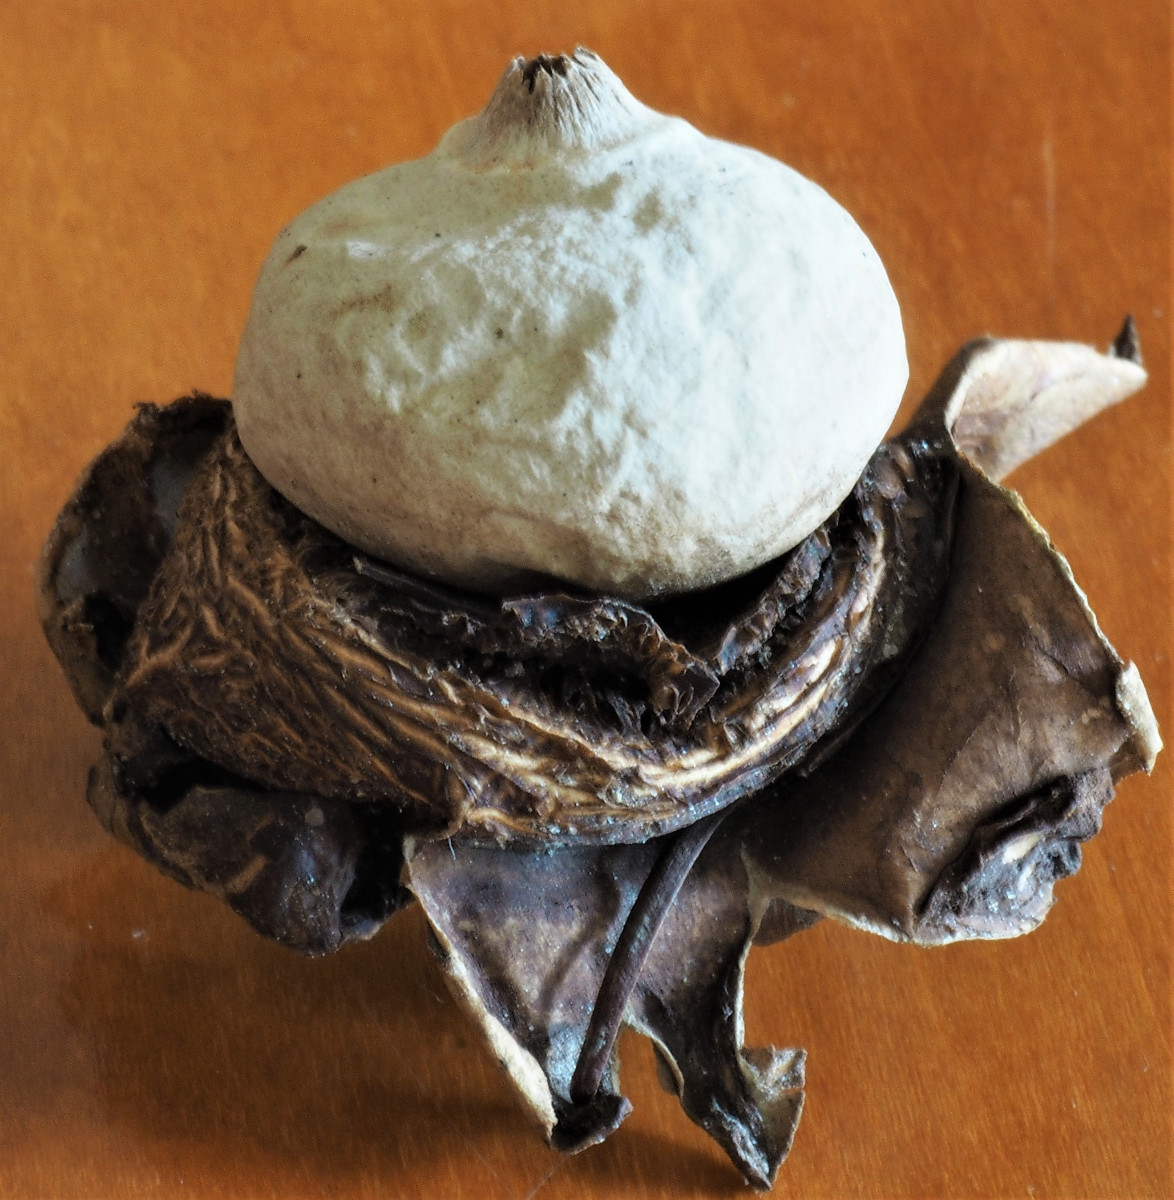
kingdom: Fungi
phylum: Basidiomycota
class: Agaricomycetes
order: Geastrales
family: Geastraceae
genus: Geastrum
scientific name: Geastrum michelianum
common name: kødet stjernebold
